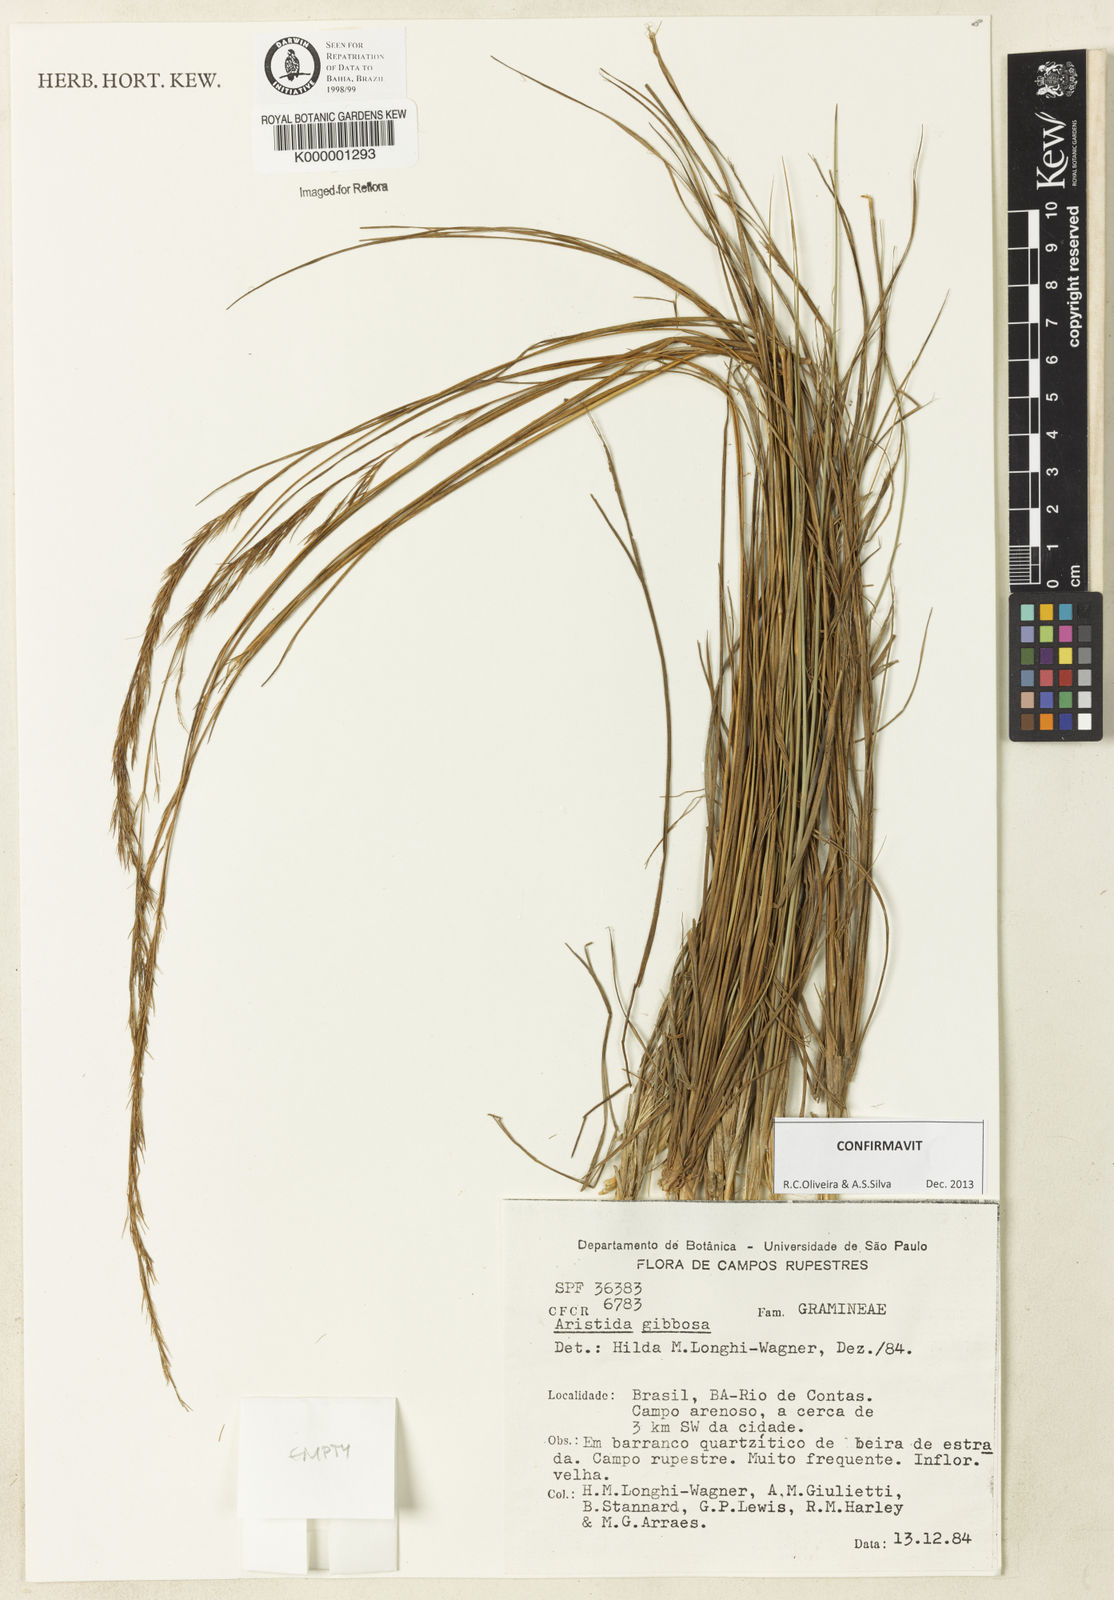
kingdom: Plantae
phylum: Tracheophyta
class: Liliopsida
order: Poales
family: Poaceae
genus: Aristida
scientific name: Aristida gibbosa
